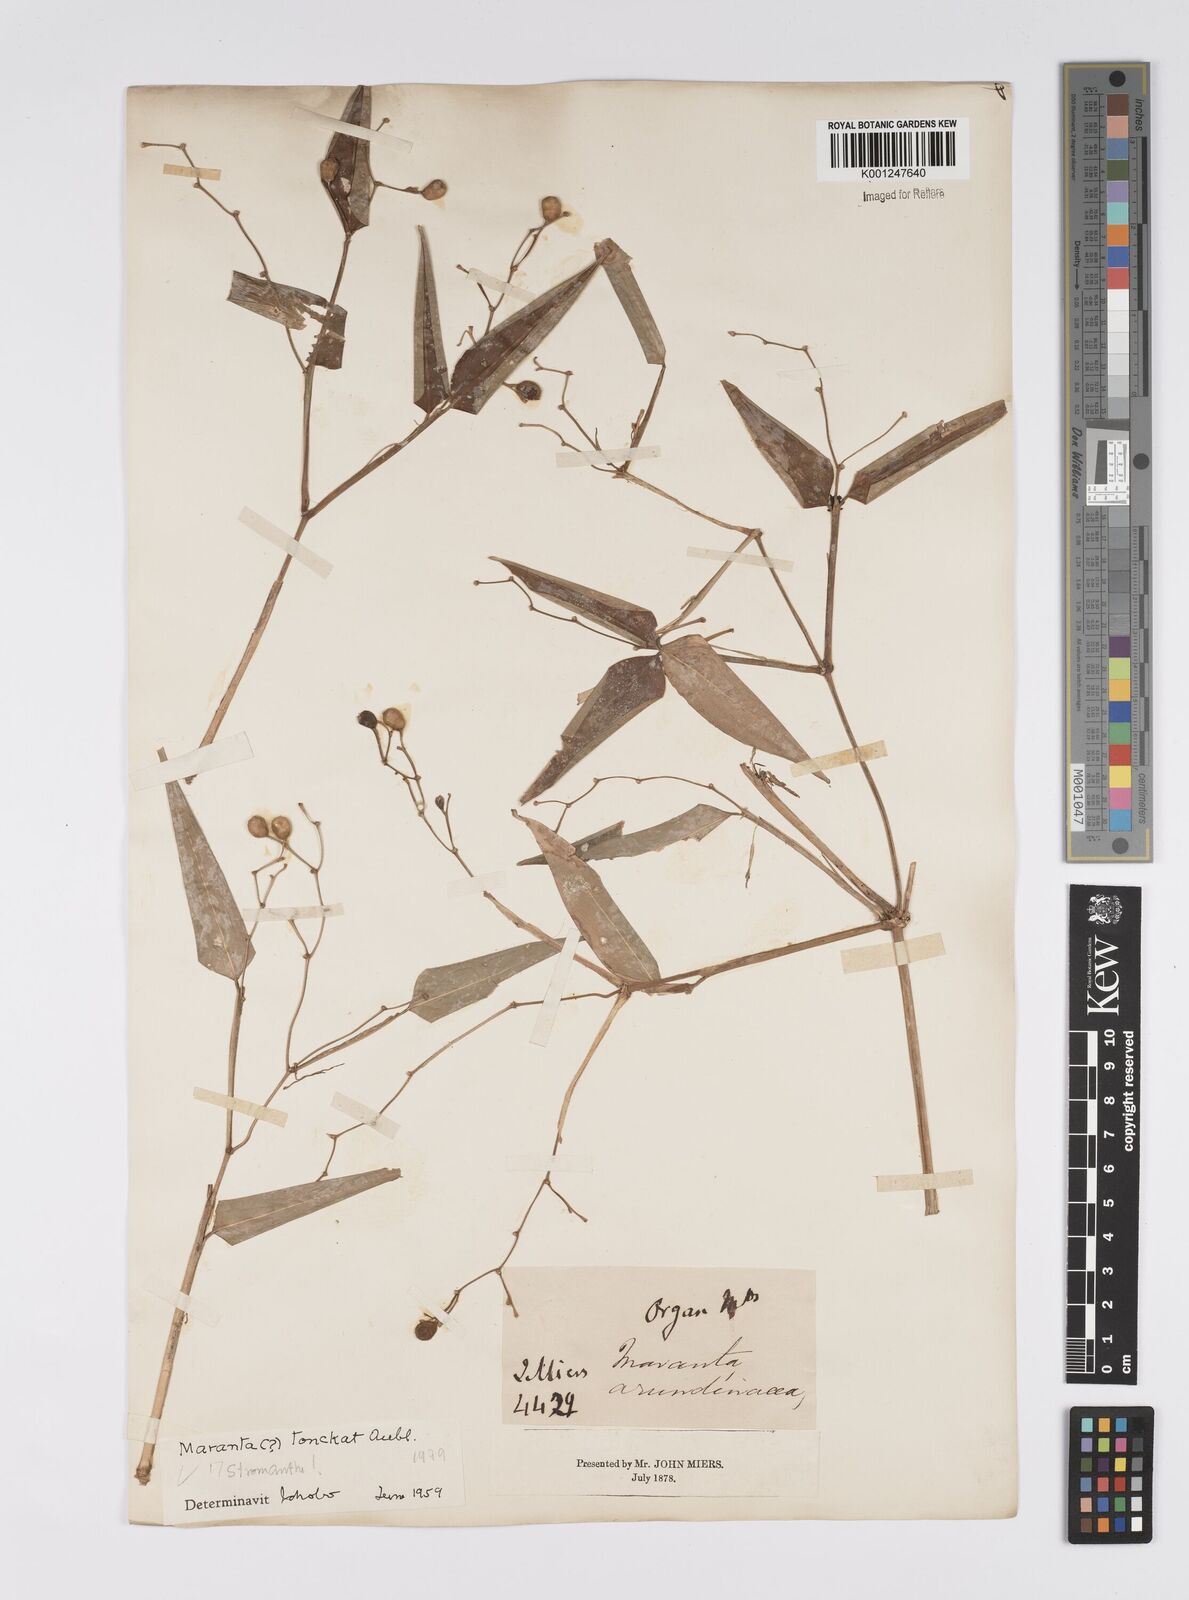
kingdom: Plantae
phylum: Tracheophyta
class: Liliopsida
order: Zingiberales
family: Marantaceae
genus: Stromanthe
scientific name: Stromanthe tonckat
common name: Stromanthe
